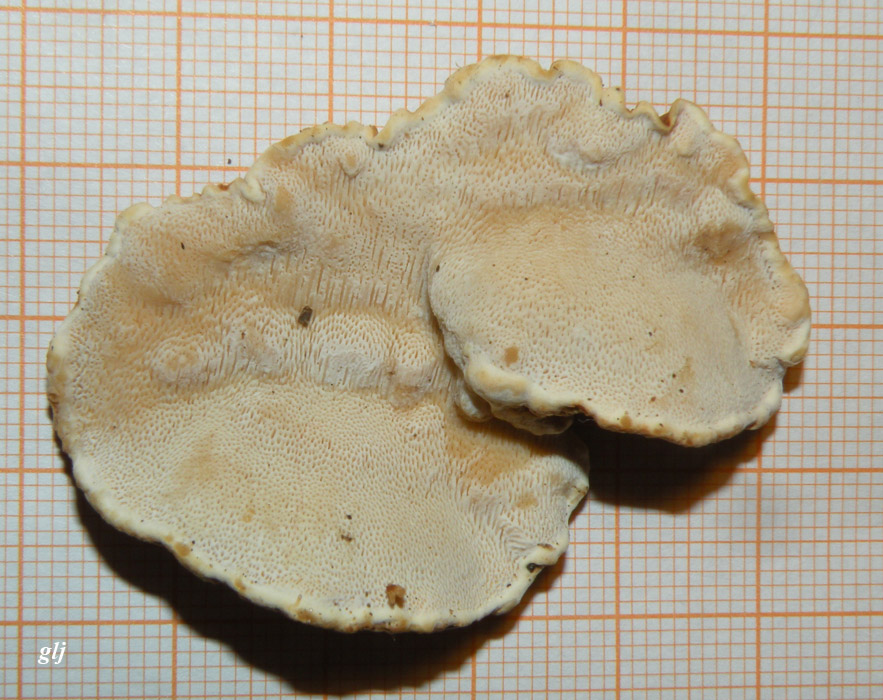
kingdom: Fungi
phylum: Basidiomycota
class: Agaricomycetes
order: Polyporales
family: Fomitopsidaceae
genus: Neoantrodia
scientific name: Neoantrodia serialis
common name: række-sejporesvamp
